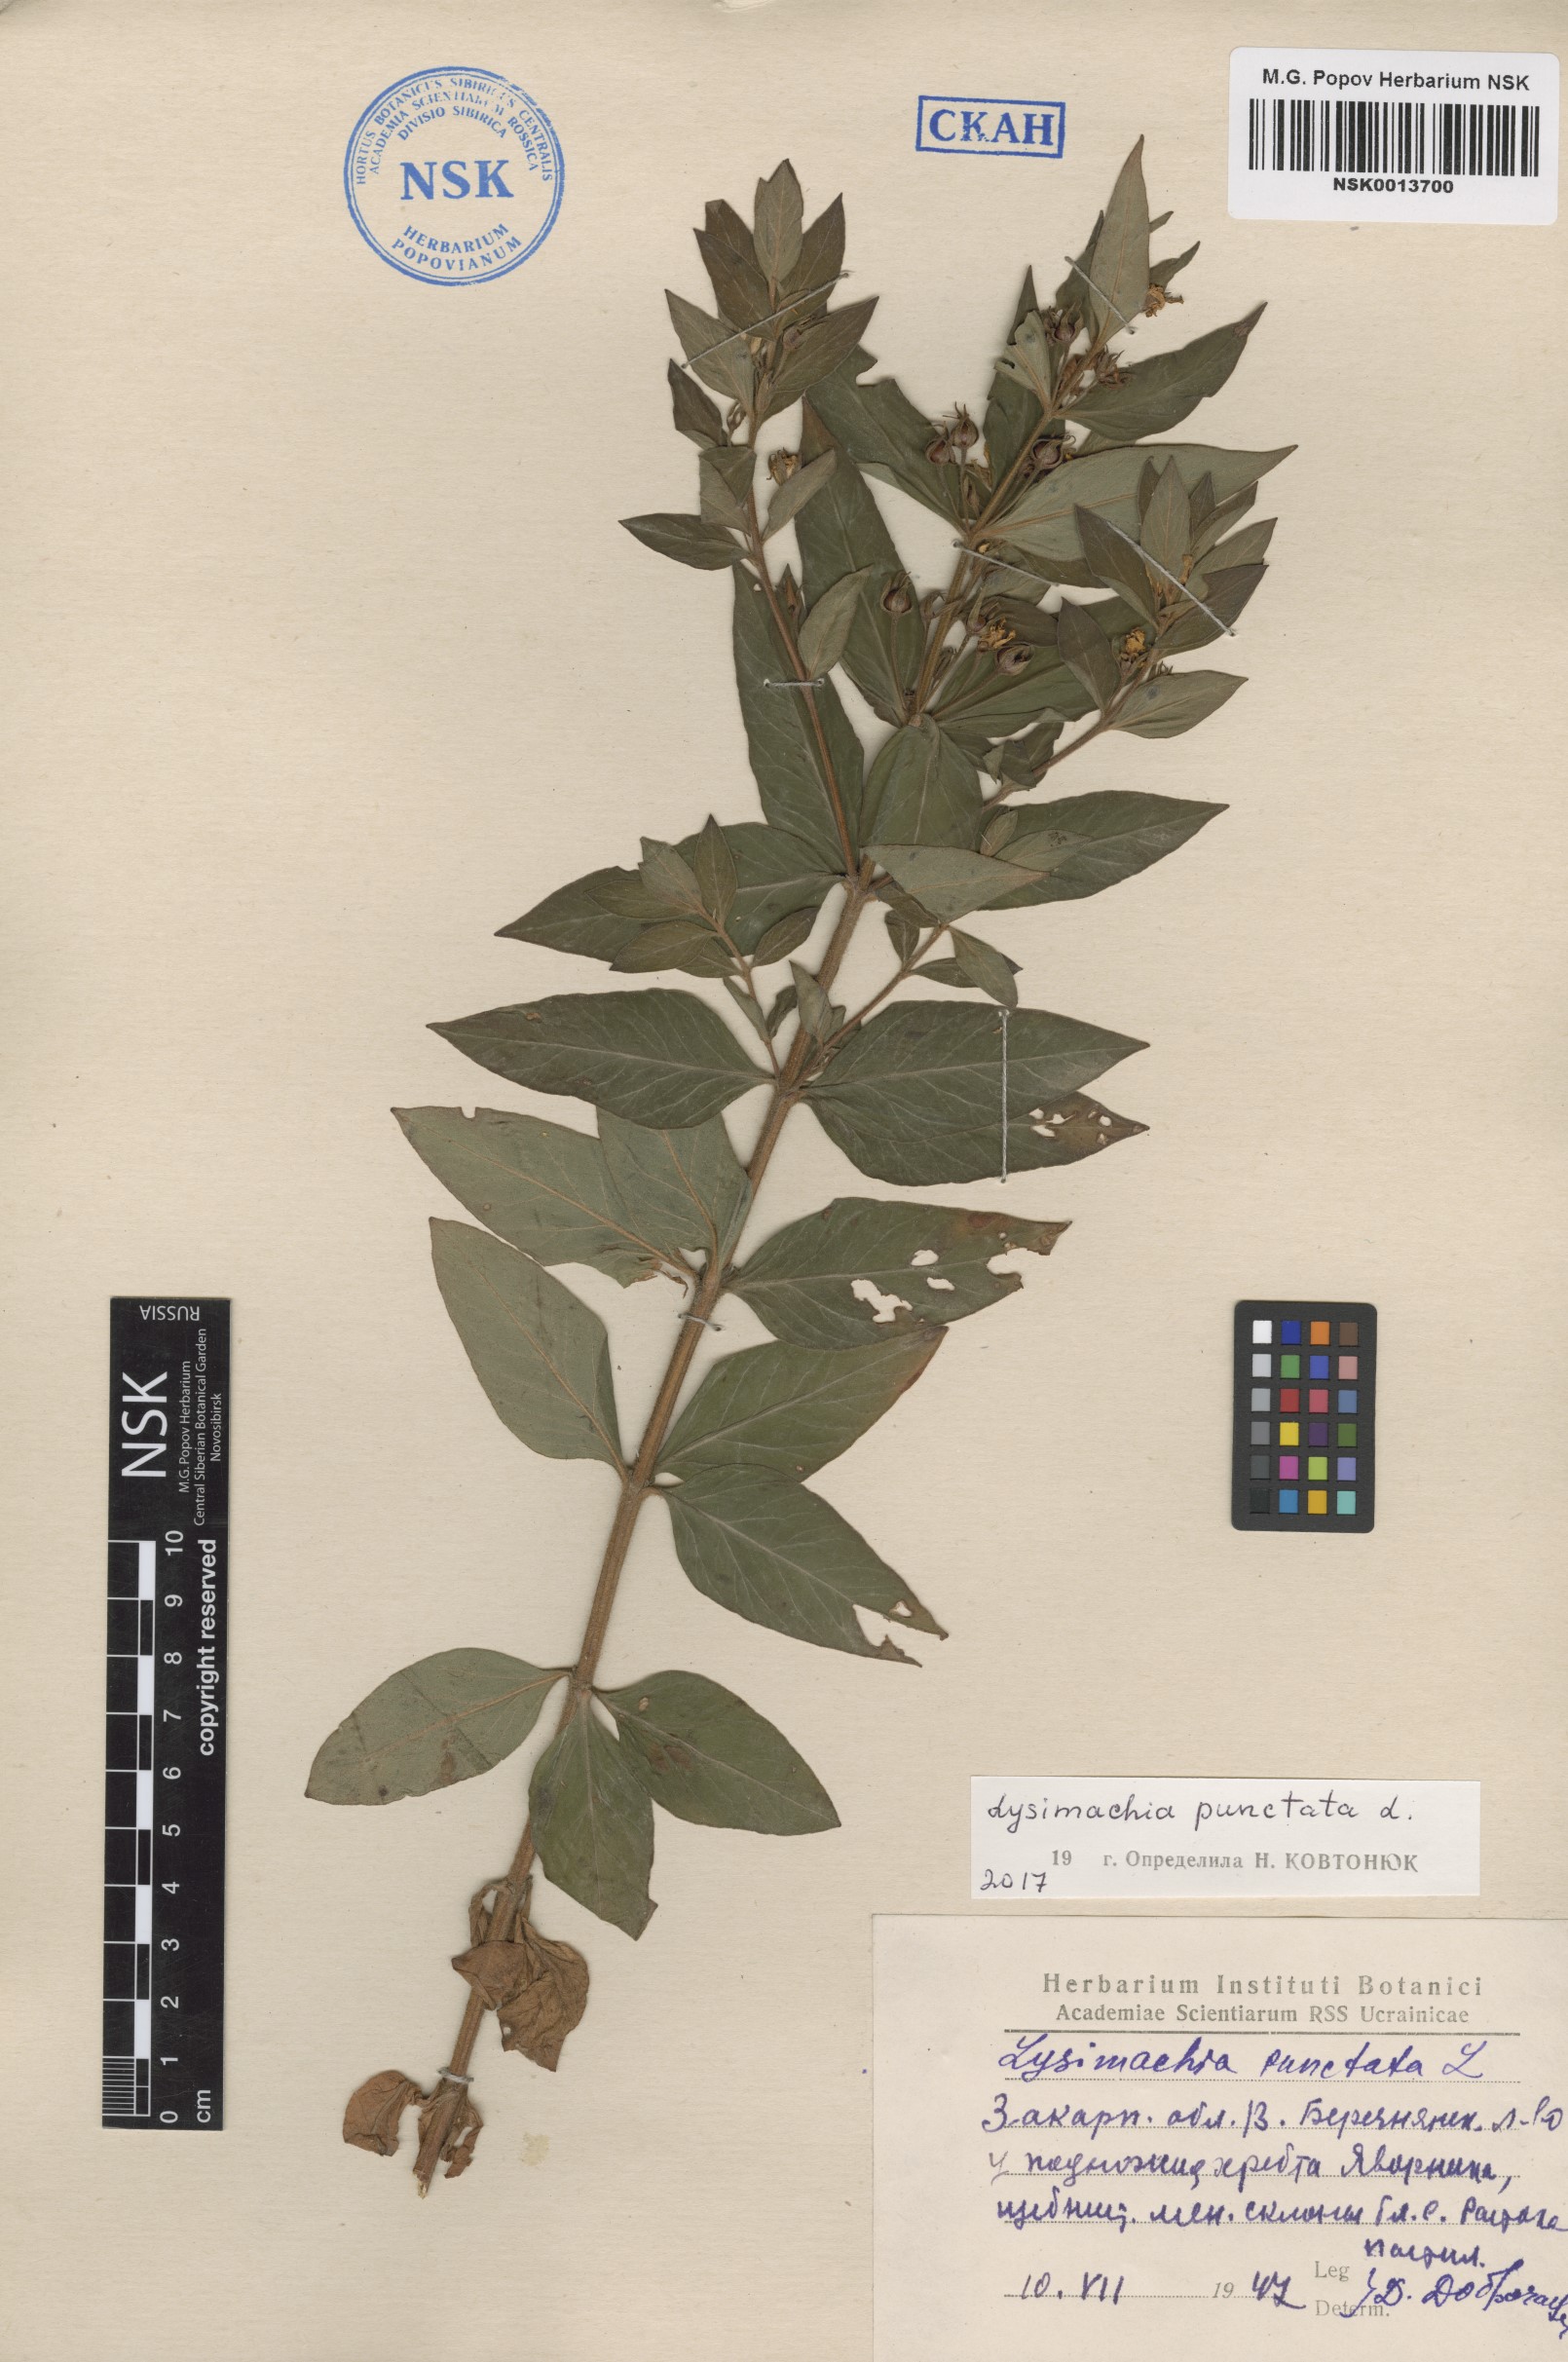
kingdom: Plantae
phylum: Tracheophyta
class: Magnoliopsida
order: Ericales
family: Primulaceae
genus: Lysimachia
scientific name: Lysimachia punctata
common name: Dotted loosestrife
